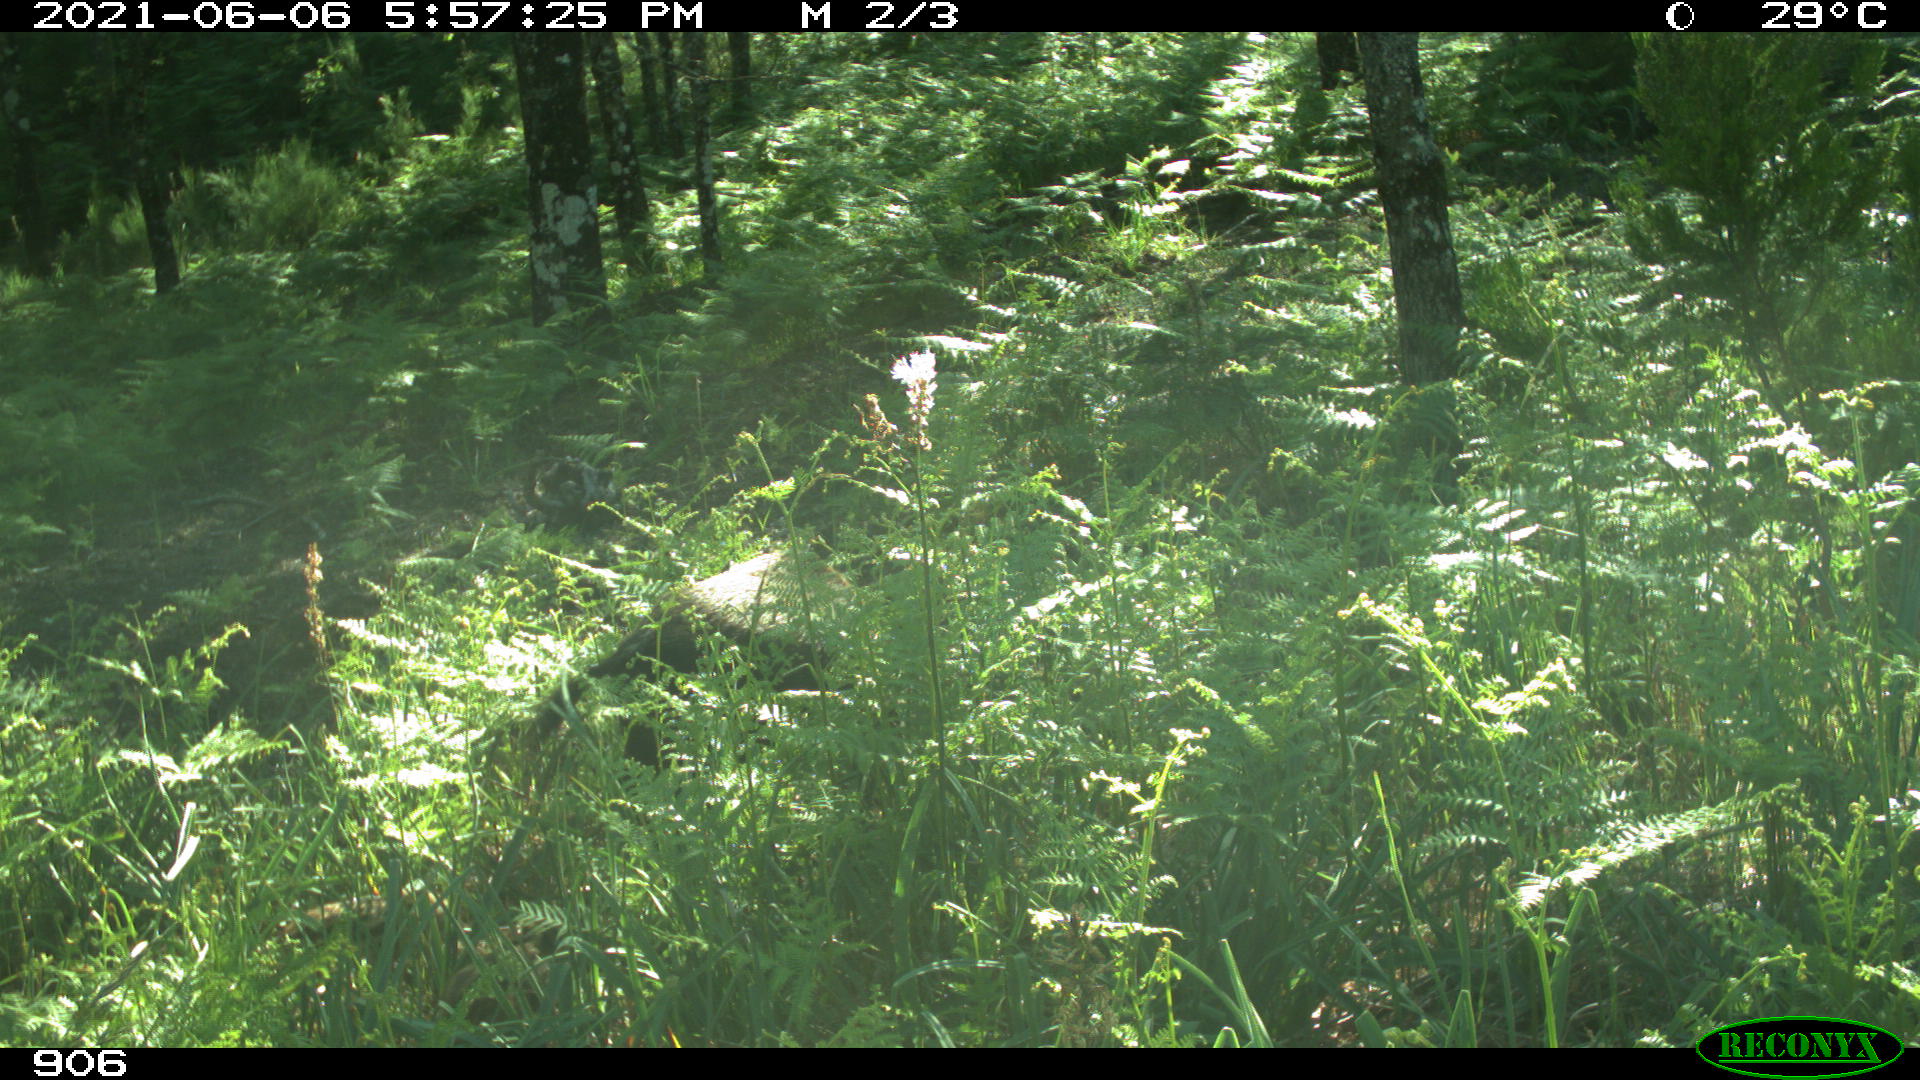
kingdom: Animalia
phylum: Chordata
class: Mammalia
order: Artiodactyla
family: Suidae
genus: Sus
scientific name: Sus scrofa
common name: Wild boar
